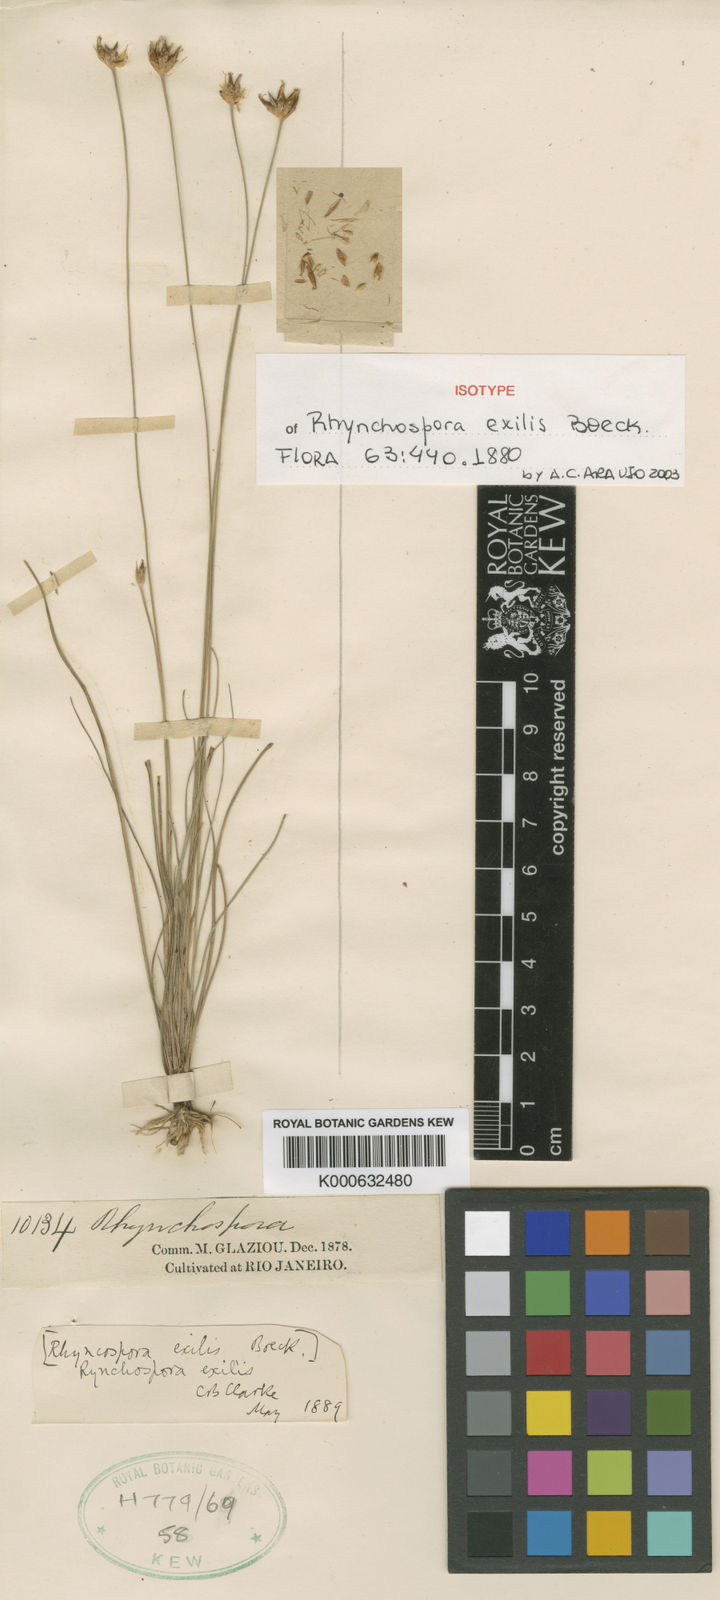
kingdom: Plantae
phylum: Tracheophyta
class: Liliopsida
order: Poales
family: Cyperaceae
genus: Rhynchospora
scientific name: Rhynchospora exilis
